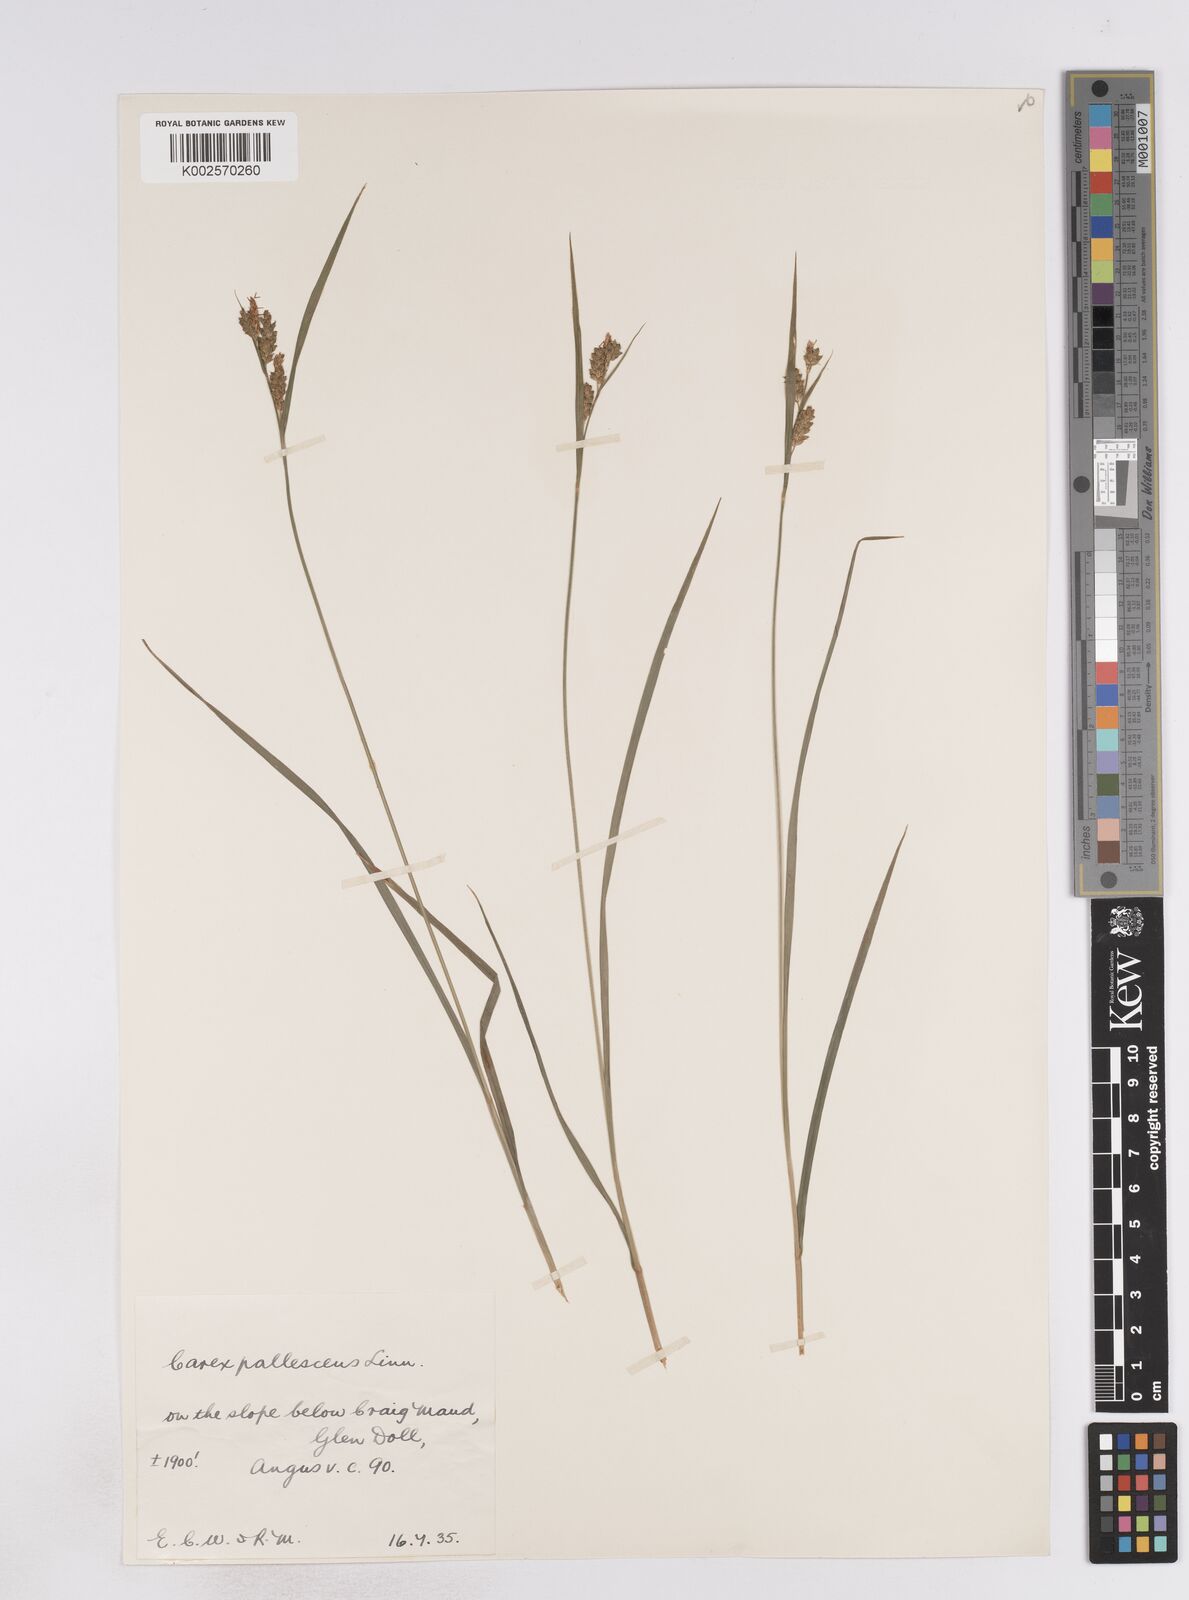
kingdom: Plantae
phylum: Tracheophyta
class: Liliopsida
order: Poales
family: Cyperaceae
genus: Carex
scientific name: Carex pallescens
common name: Pale sedge
